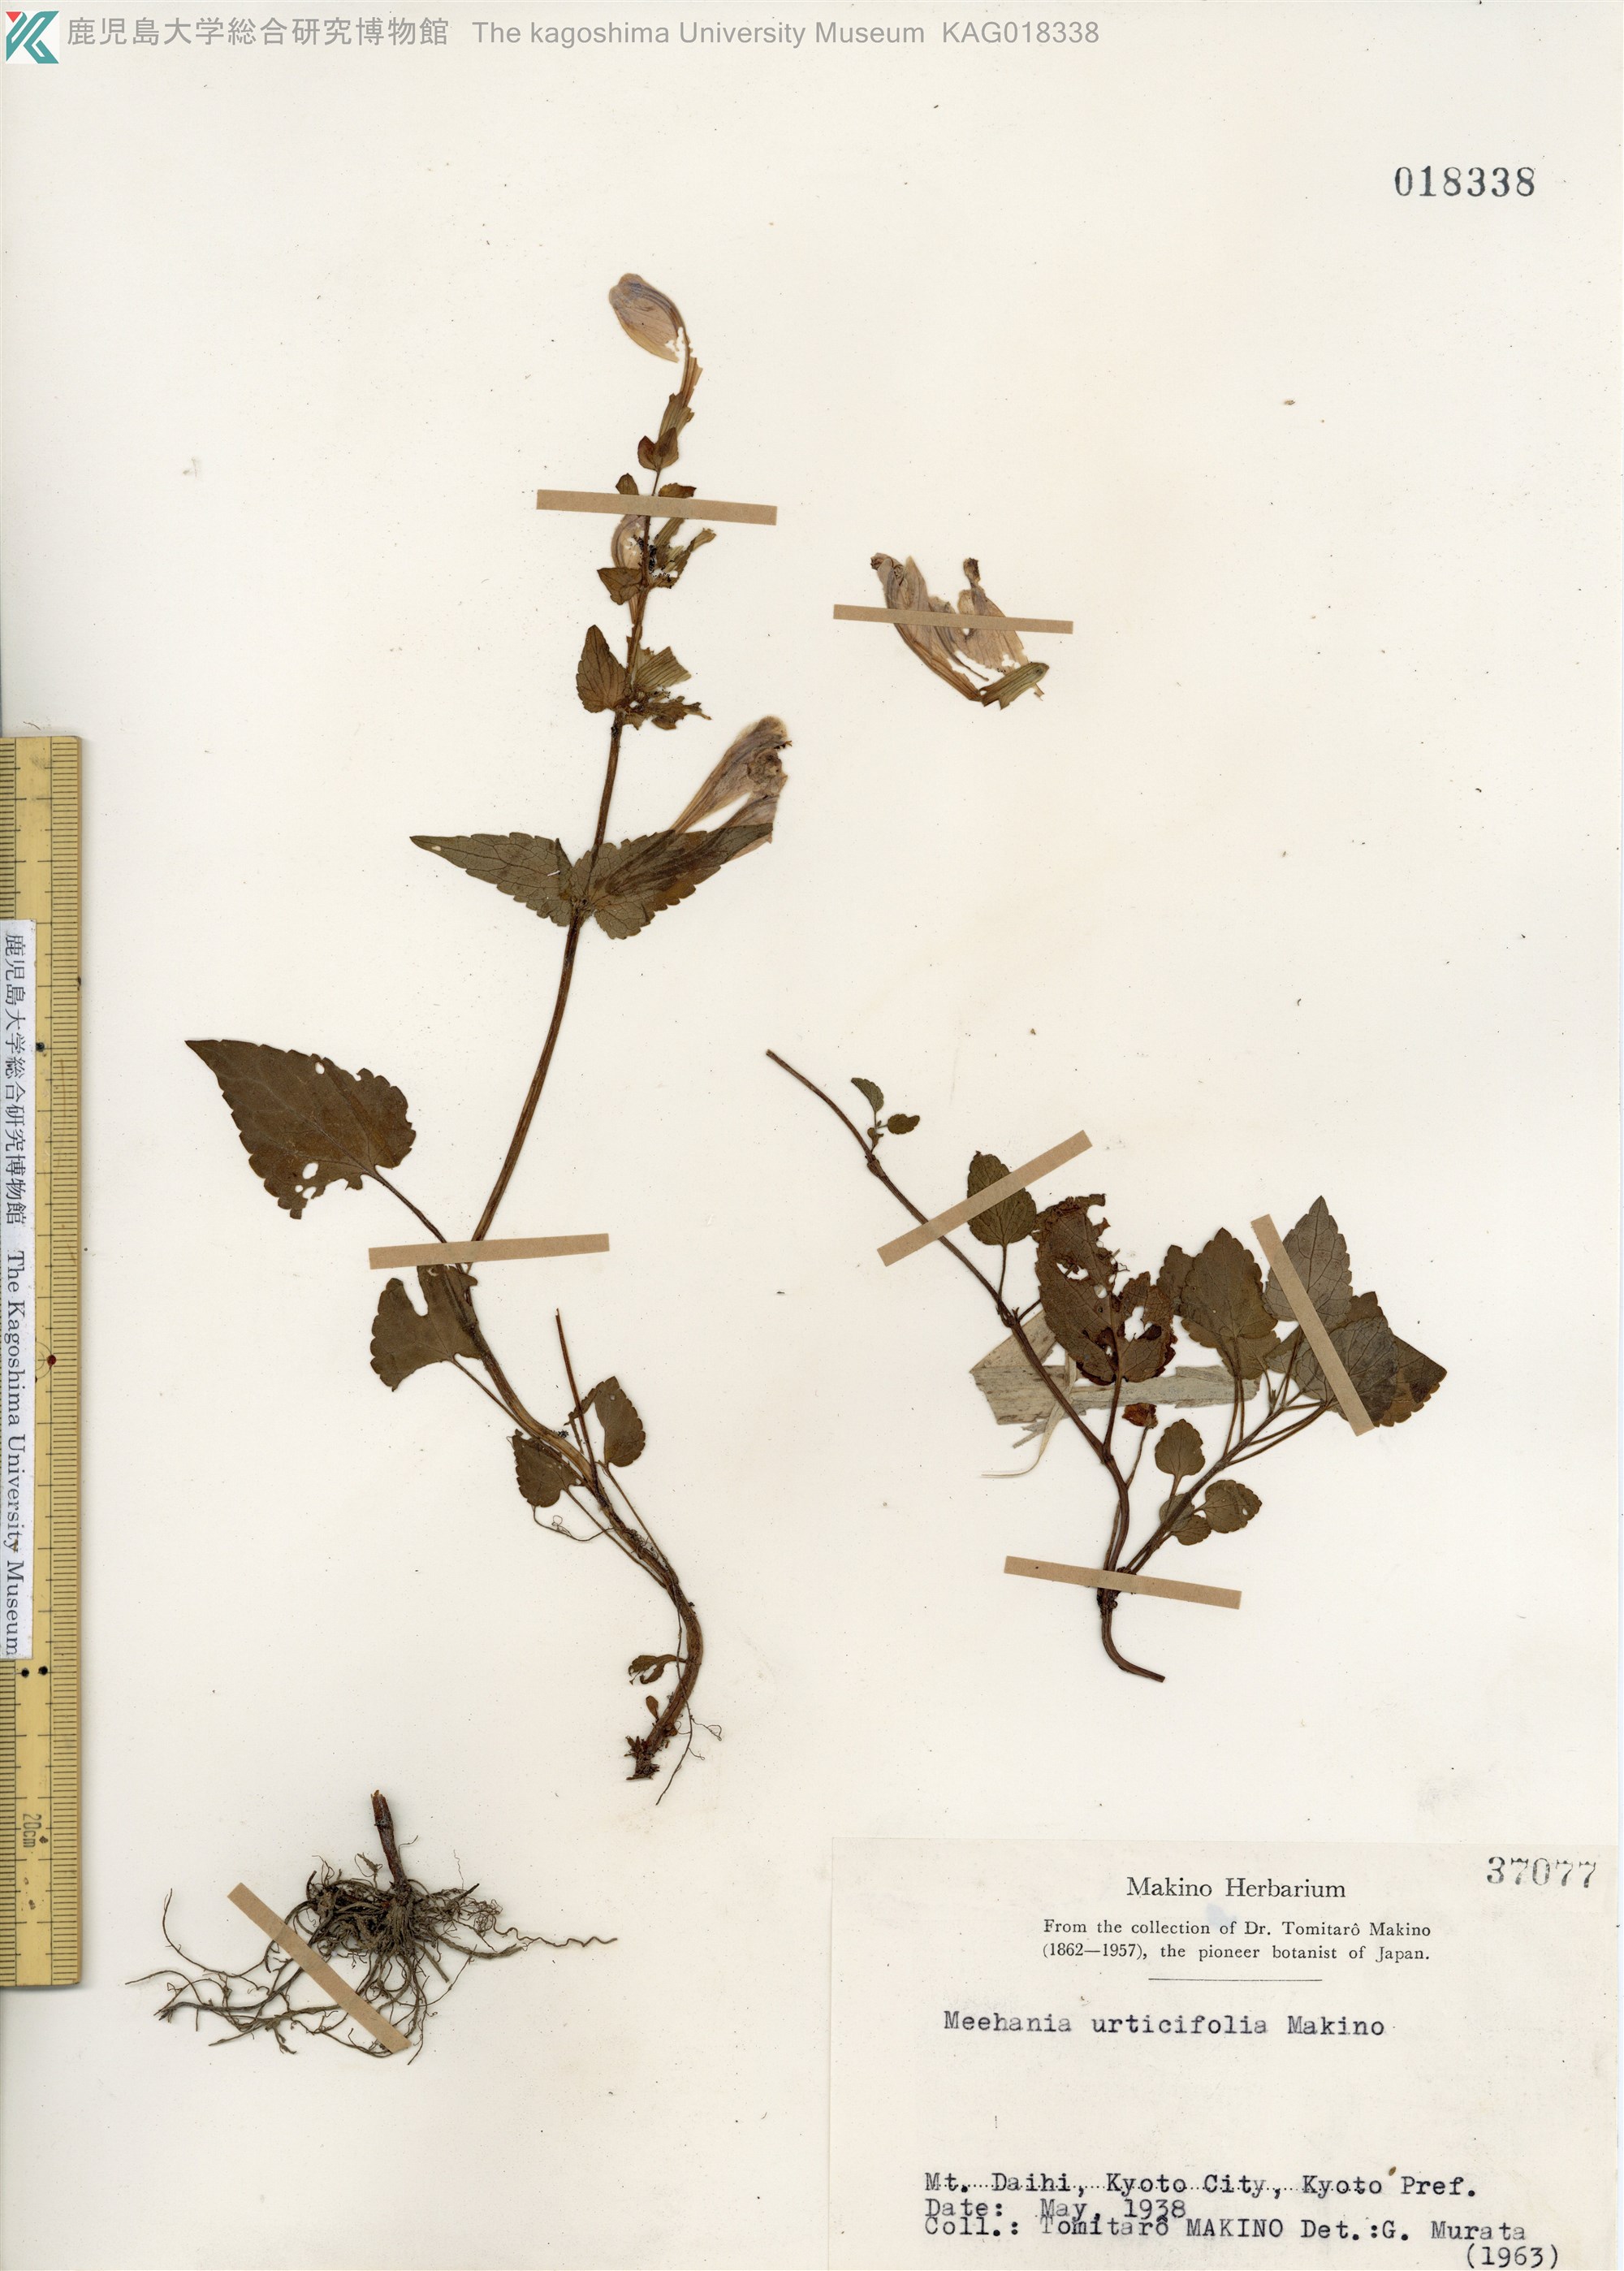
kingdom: Plantae
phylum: Tracheophyta
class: Magnoliopsida
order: Lamiales
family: Lamiaceae
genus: Meehania
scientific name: Meehania urticifolia
